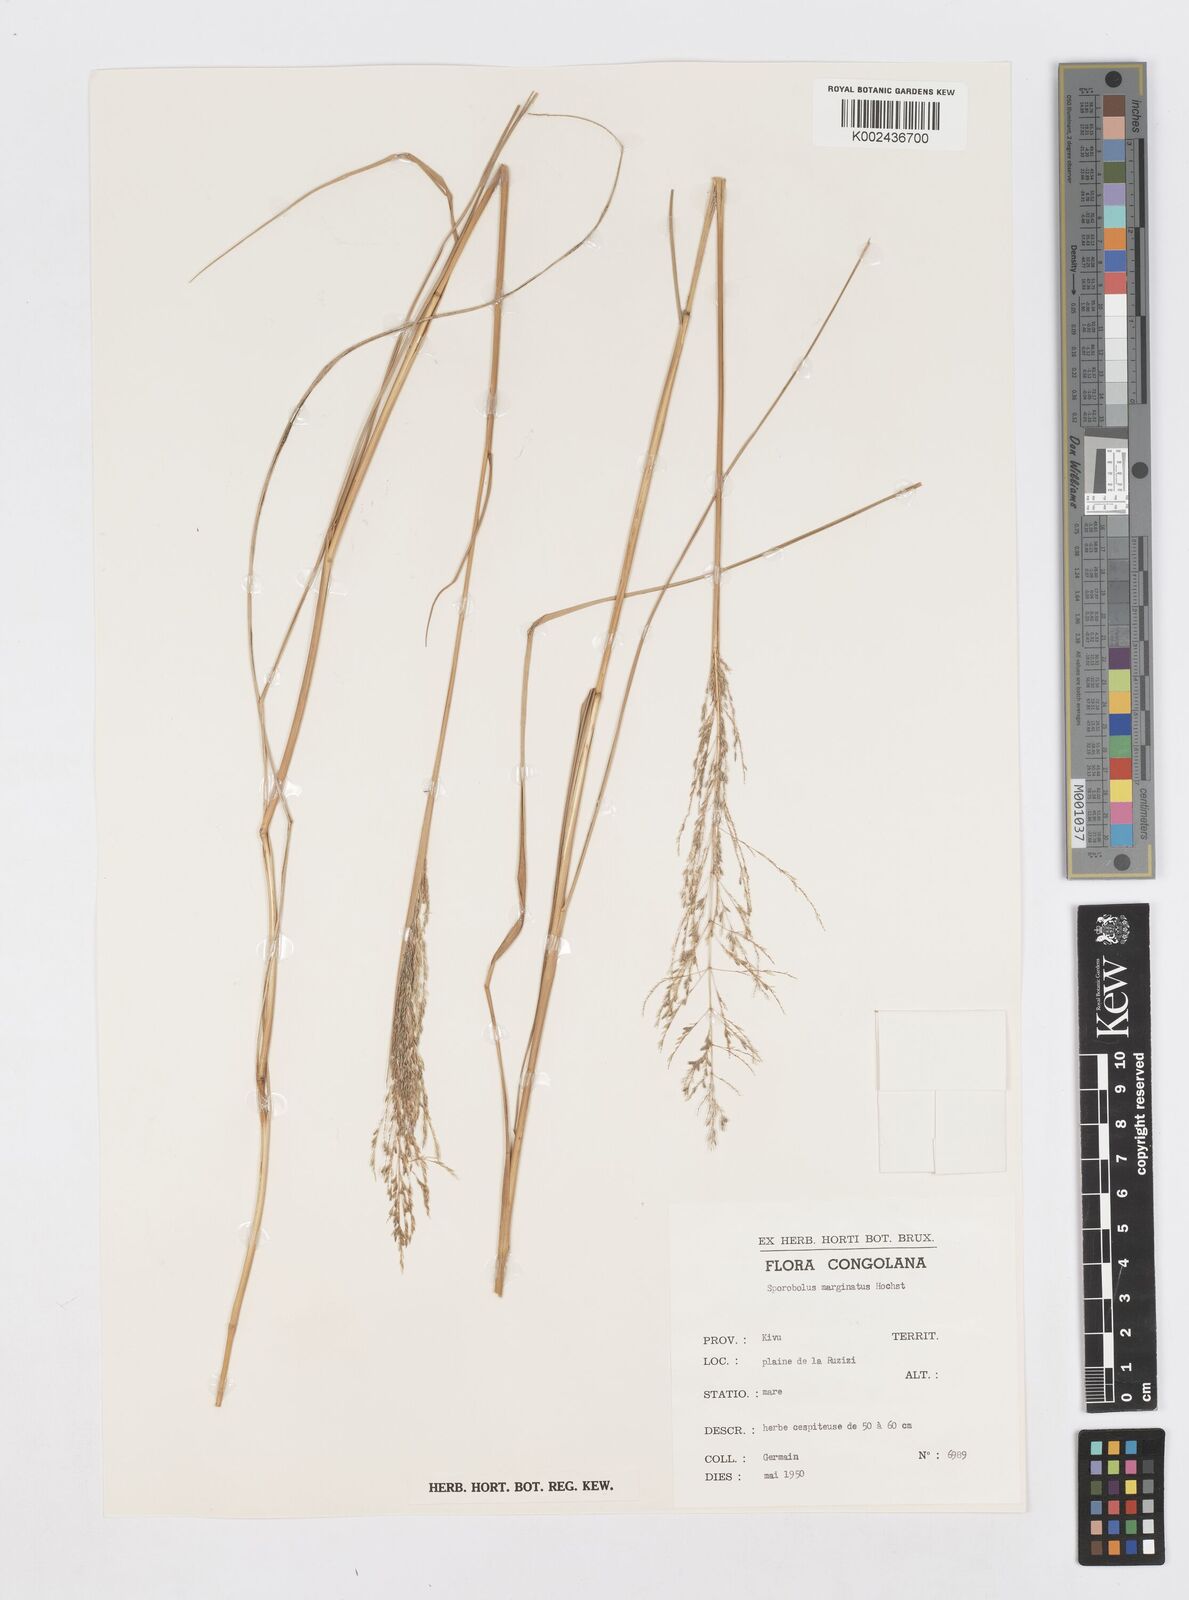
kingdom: Plantae
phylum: Tracheophyta
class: Liliopsida
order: Poales
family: Poaceae
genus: Sporobolus
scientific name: Sporobolus ioclados
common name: Pan dropseed
